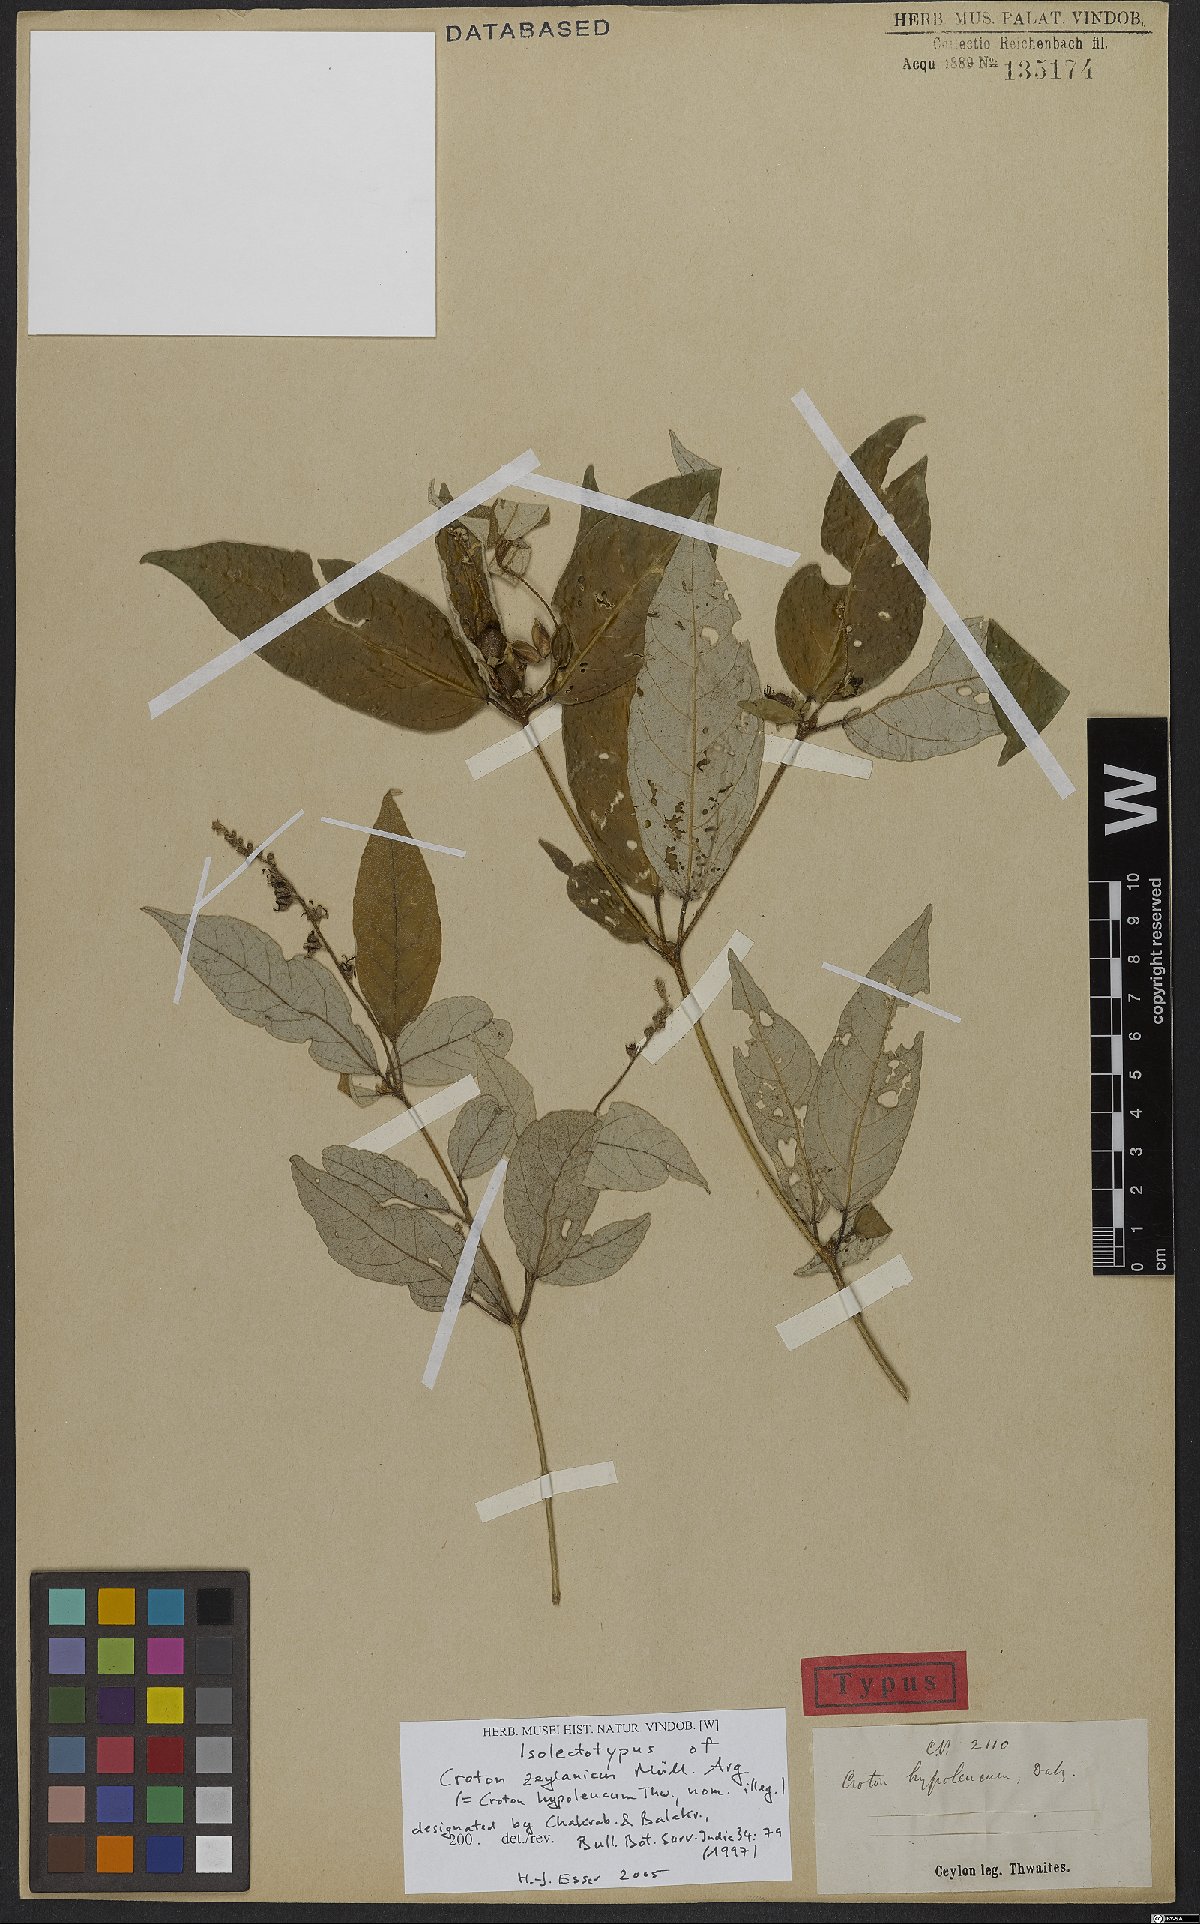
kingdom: Plantae
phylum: Tracheophyta
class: Magnoliopsida
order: Malpighiales
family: Euphorbiaceae
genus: Croton
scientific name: Croton zeylanicus
